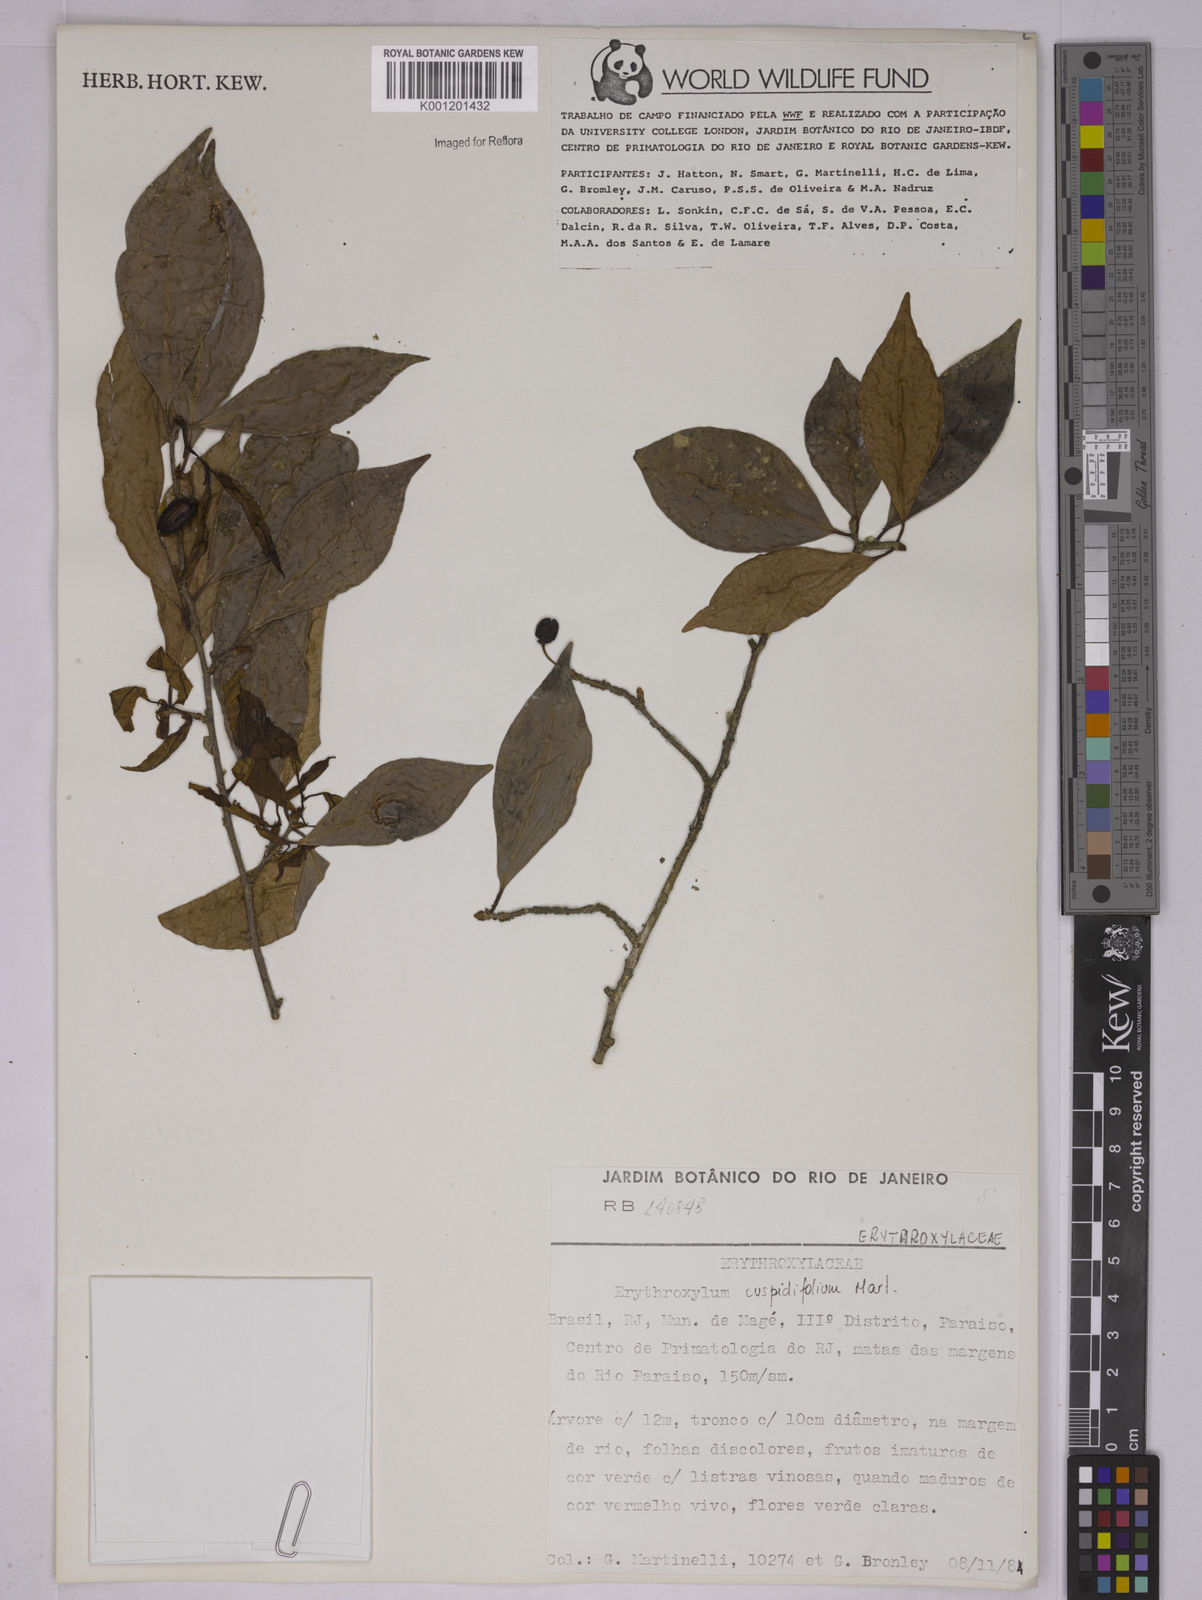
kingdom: Plantae
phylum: Tracheophyta
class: Magnoliopsida
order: Malpighiales
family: Erythroxylaceae
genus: Erythroxylum
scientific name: Erythroxylum cuspidifolium
